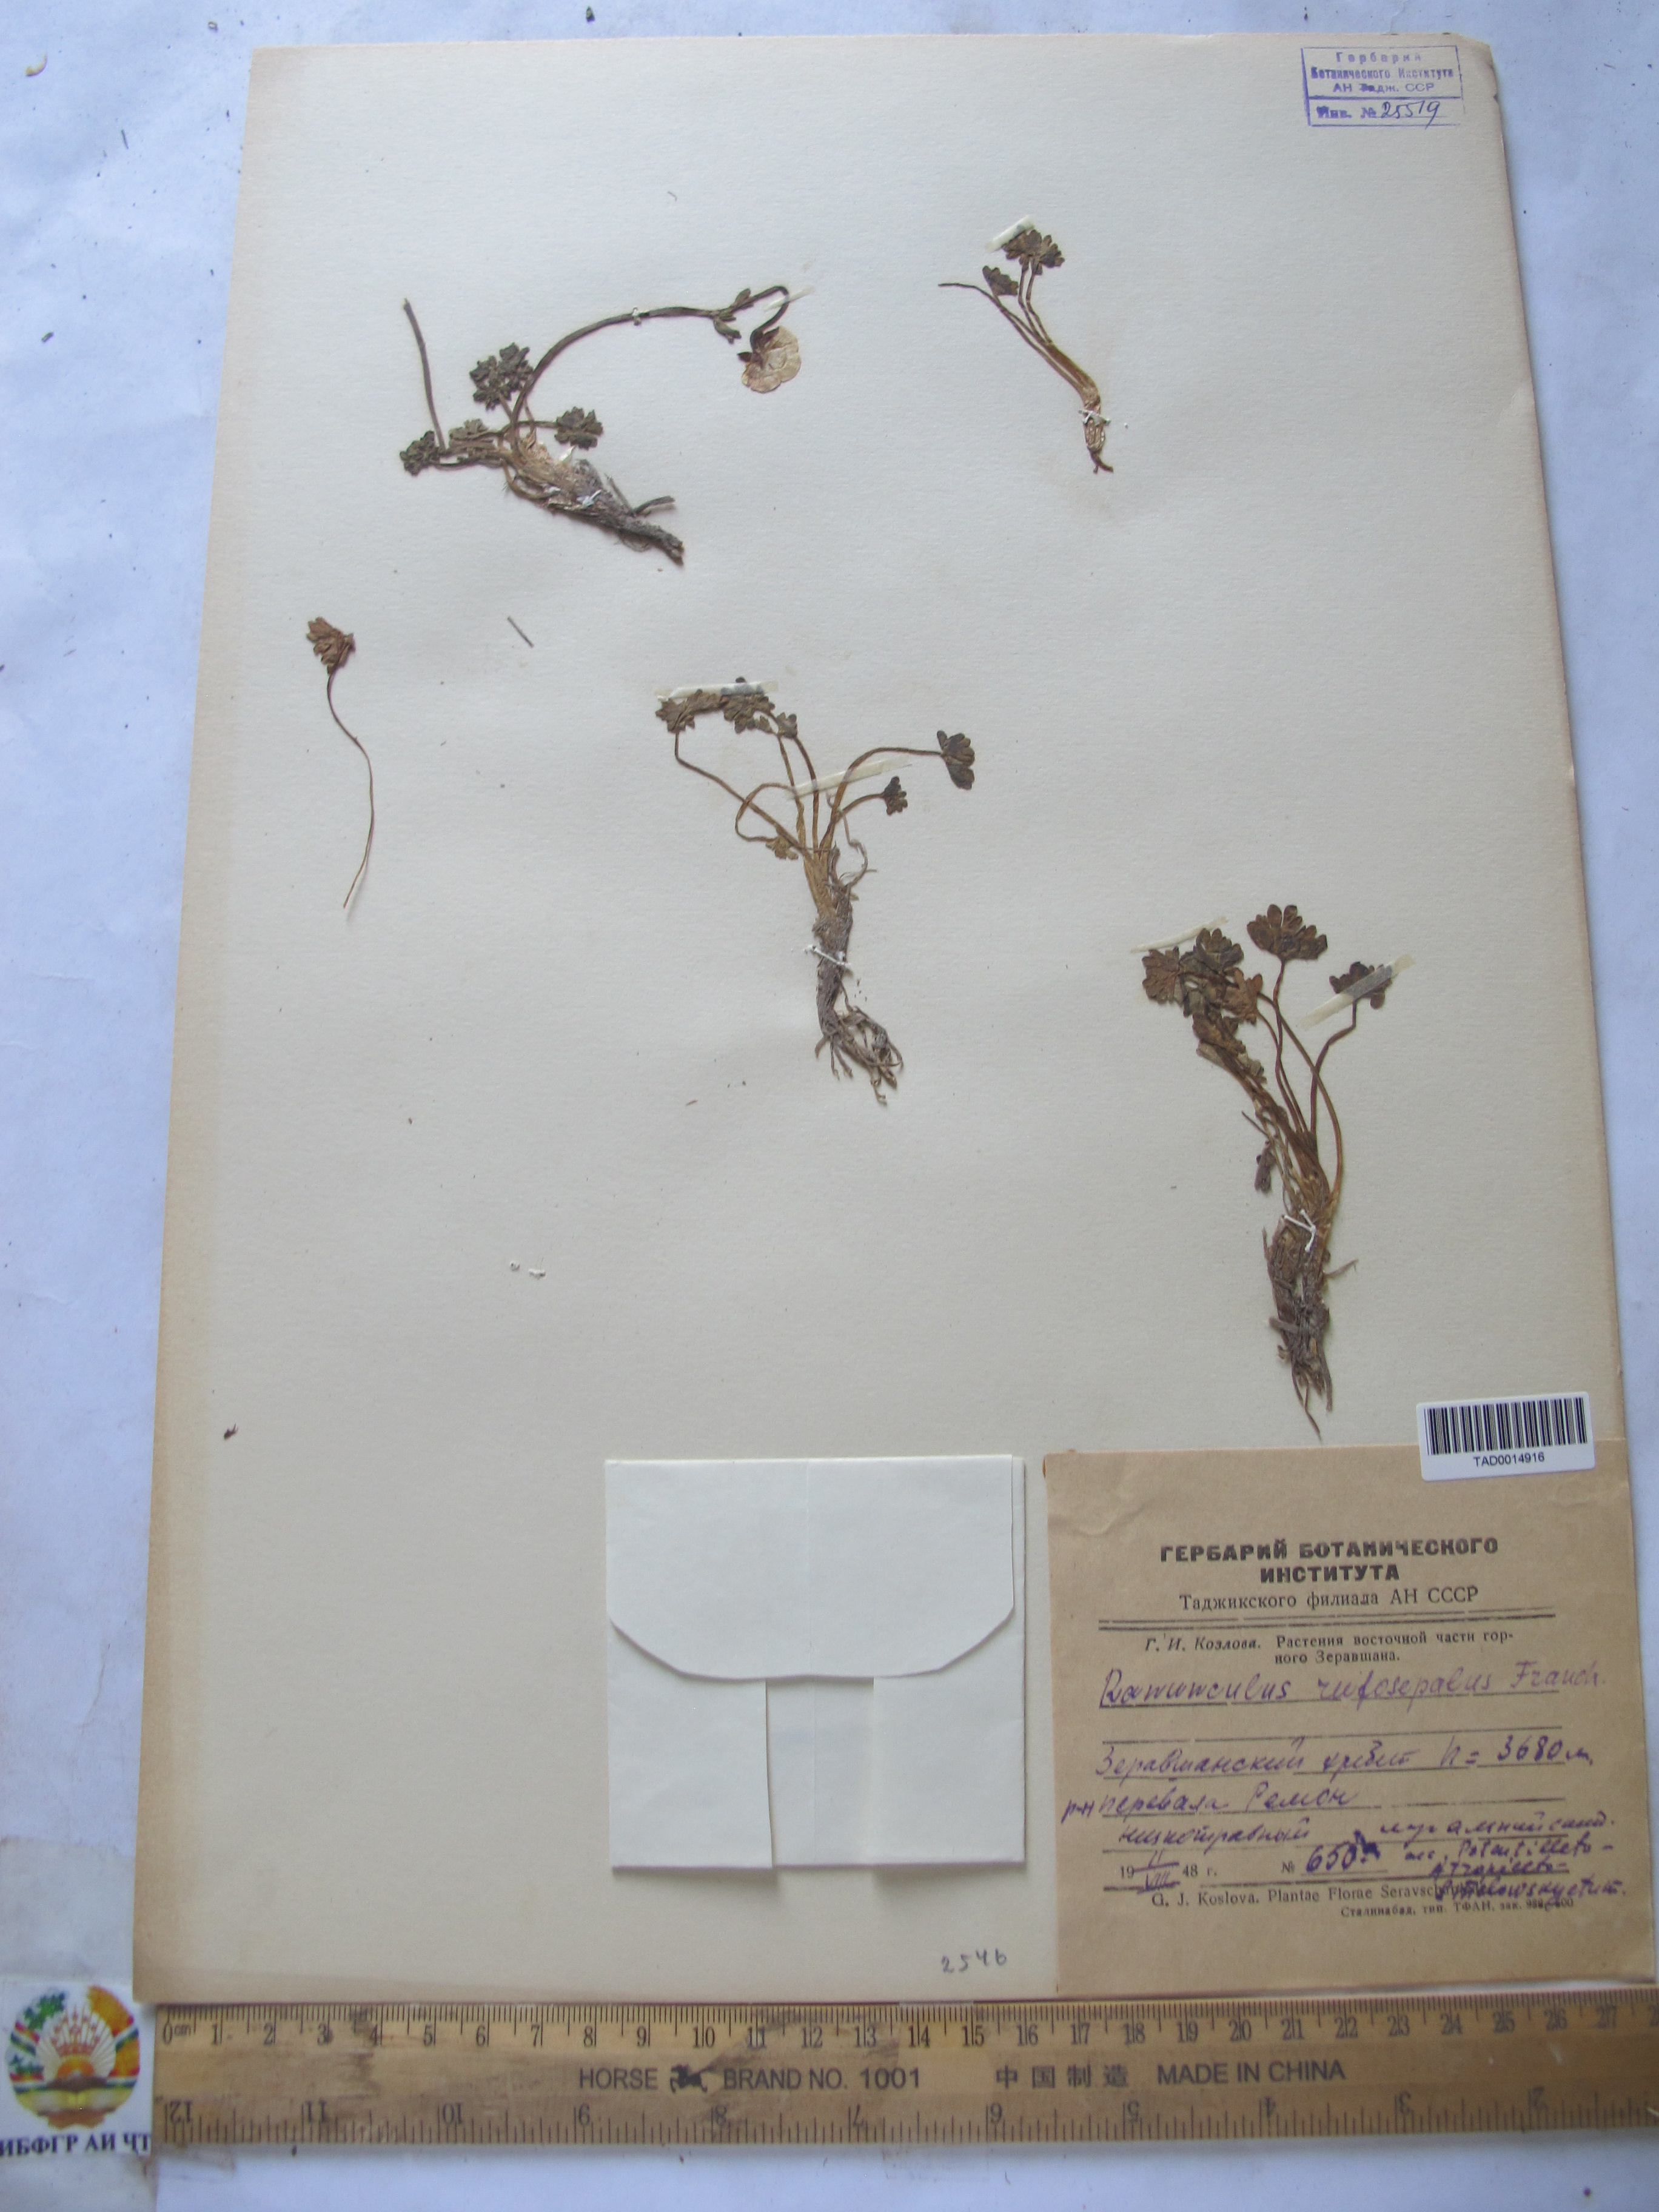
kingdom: Plantae
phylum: Tracheophyta
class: Magnoliopsida
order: Ranunculales
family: Ranunculaceae
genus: Ranunculus
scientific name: Ranunculus rufosepalus
